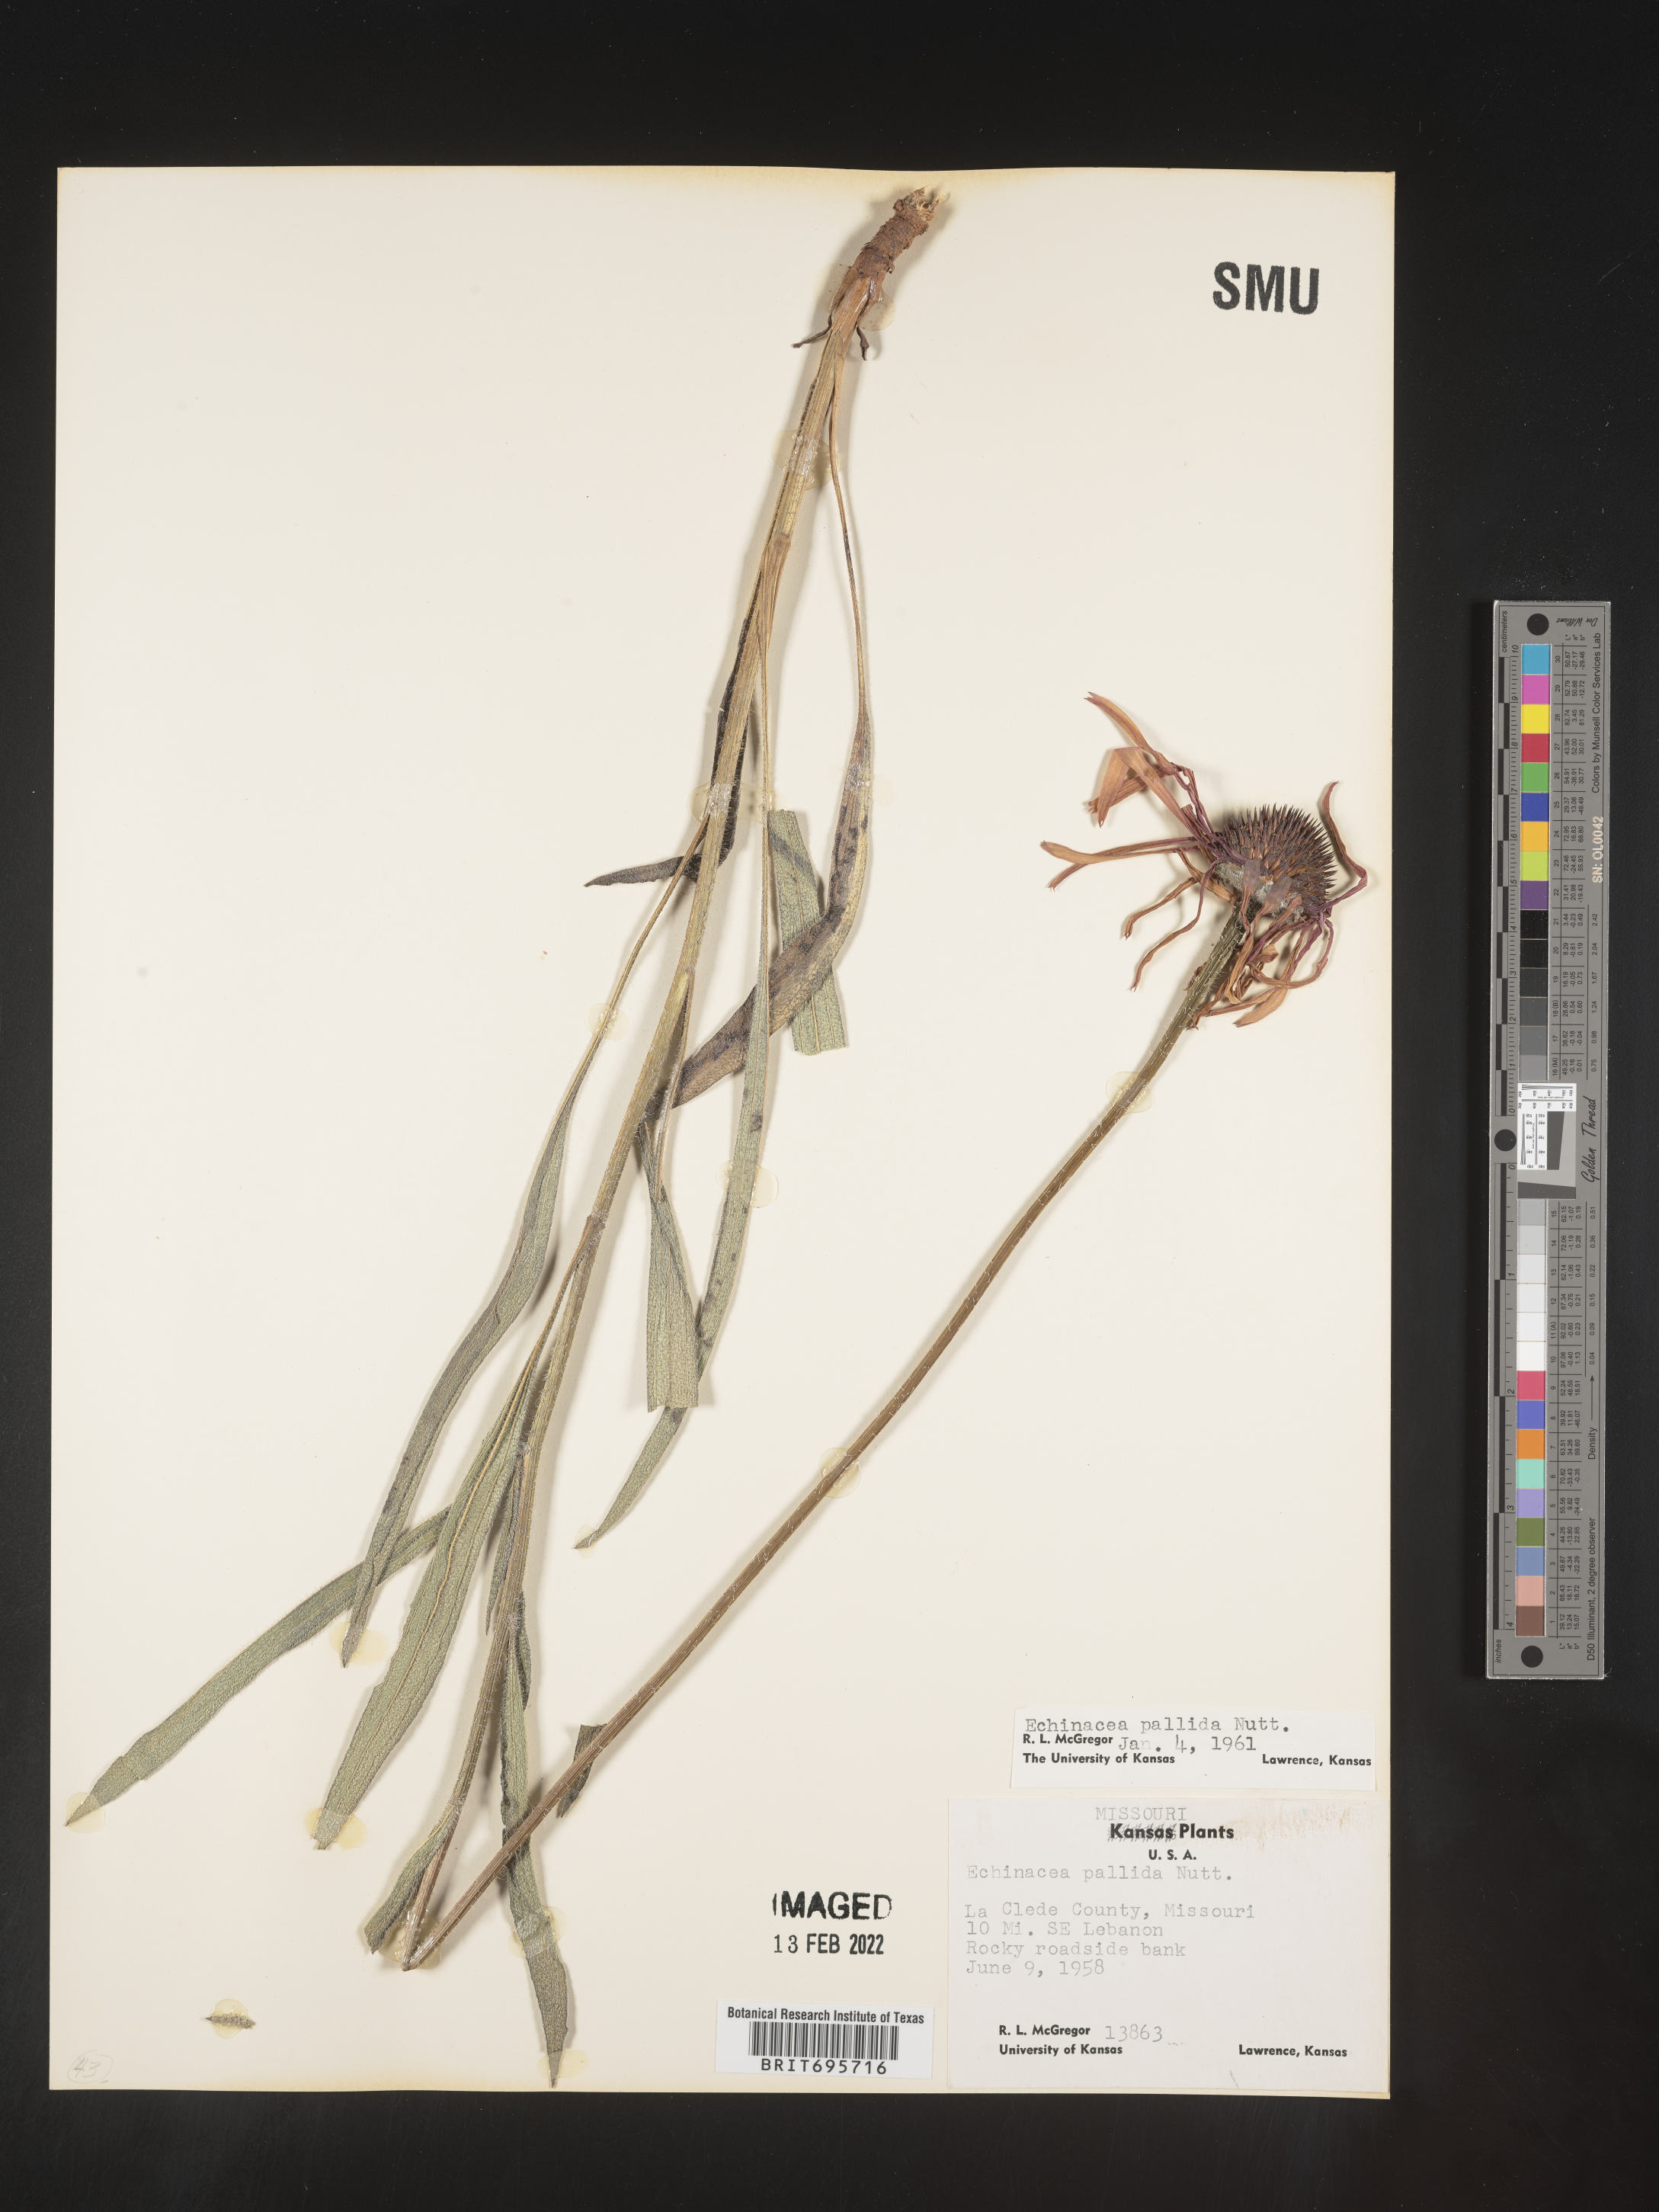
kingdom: Plantae
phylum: Tracheophyta
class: Magnoliopsida
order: Asterales
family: Asteraceae
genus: Echinacea
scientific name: Echinacea pallida
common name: Pale echinacea
